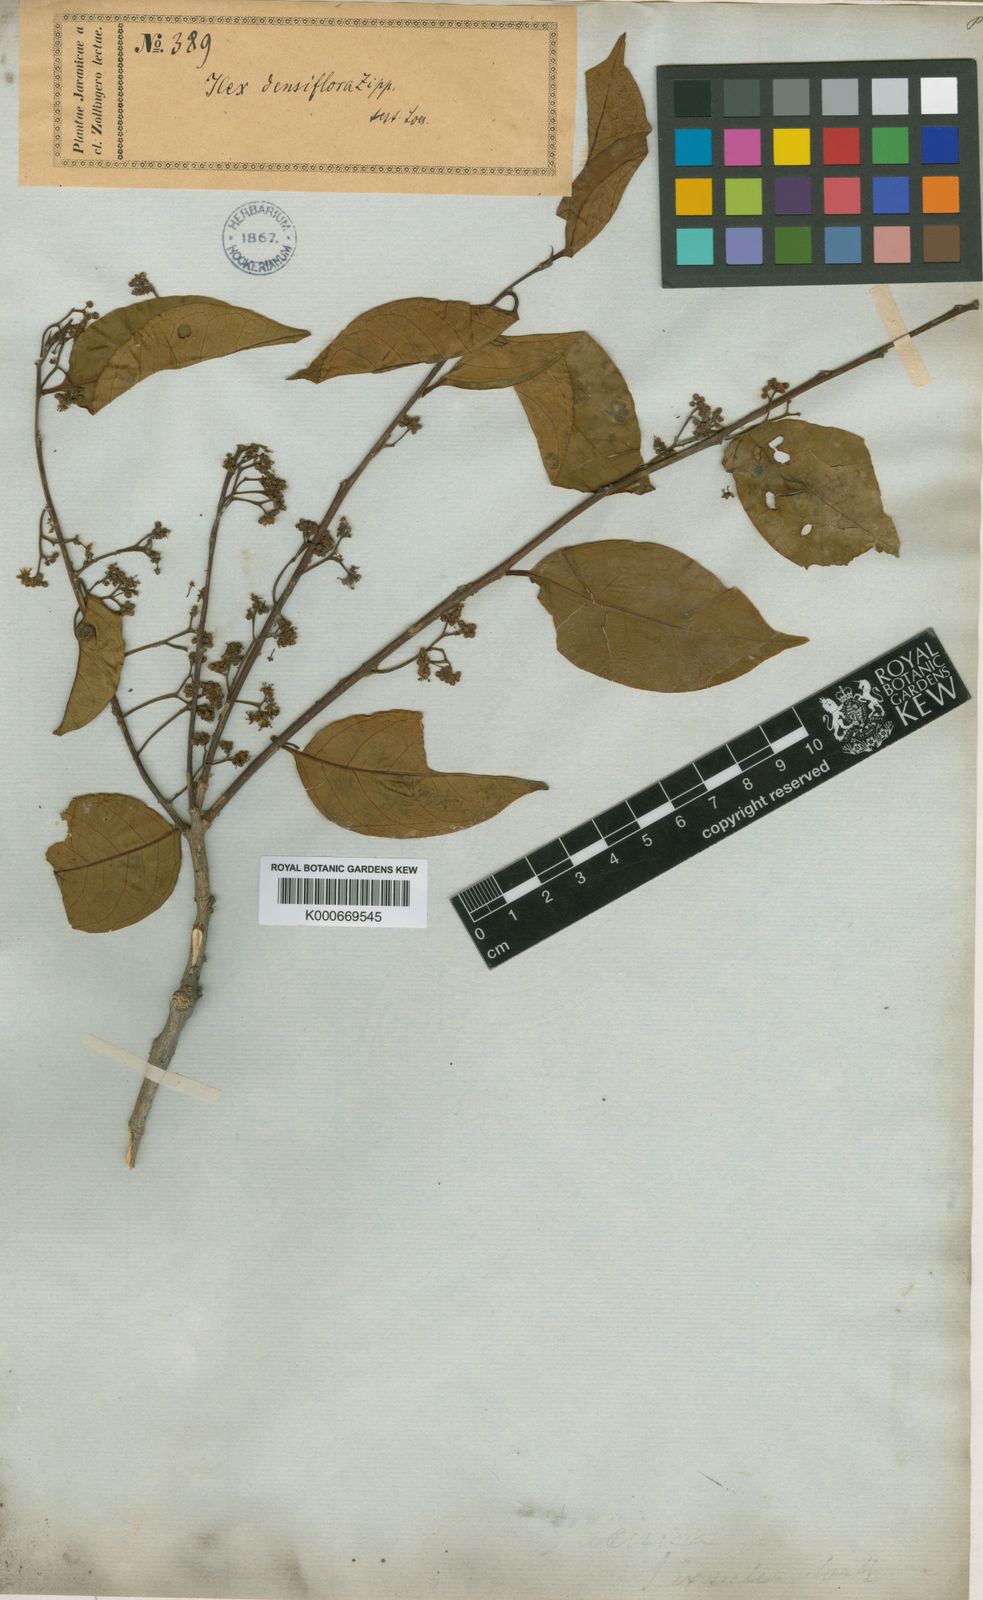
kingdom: Plantae
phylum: Tracheophyta
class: Magnoliopsida
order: Aquifoliales
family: Aquifoliaceae
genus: Ilex
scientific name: Ilex alternifolia
